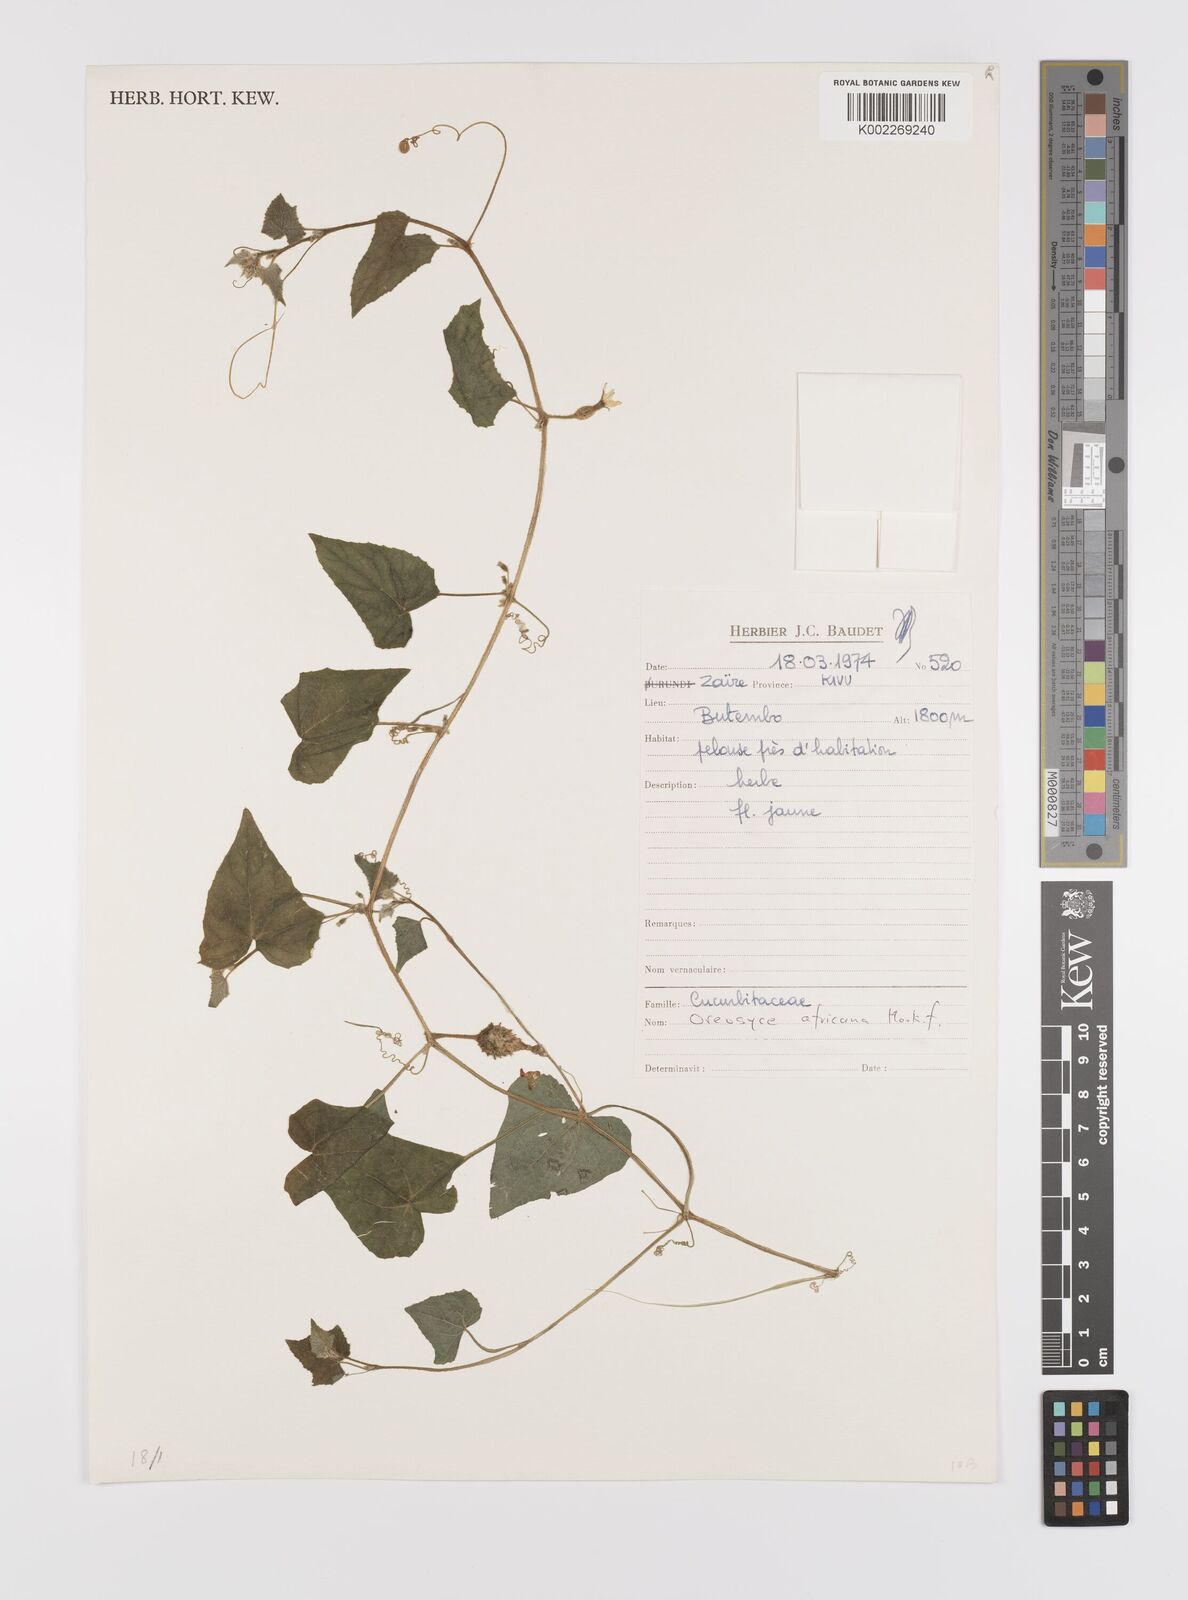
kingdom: Plantae
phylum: Tracheophyta
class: Magnoliopsida
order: Cucurbitales
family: Cucurbitaceae
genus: Cucumis
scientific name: Cucumis oreosyce
